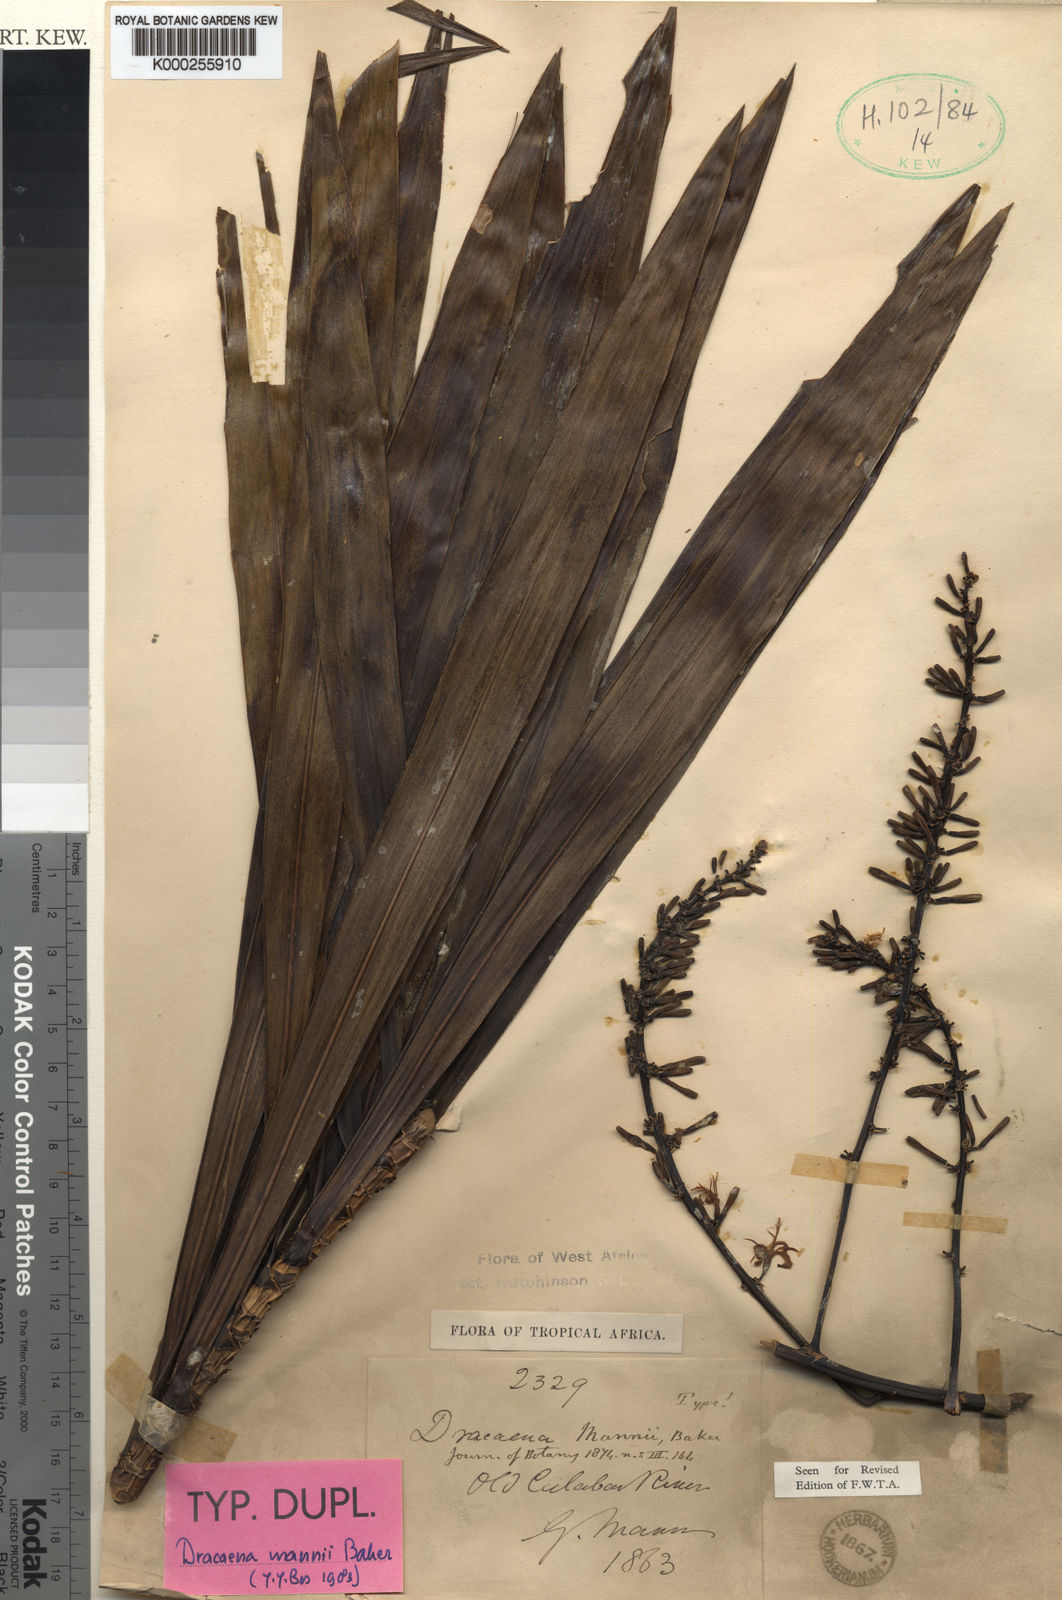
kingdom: Plantae
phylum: Tracheophyta
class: Liliopsida
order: Asparagales
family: Asparagaceae
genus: Dracaena
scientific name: Dracaena mannii
